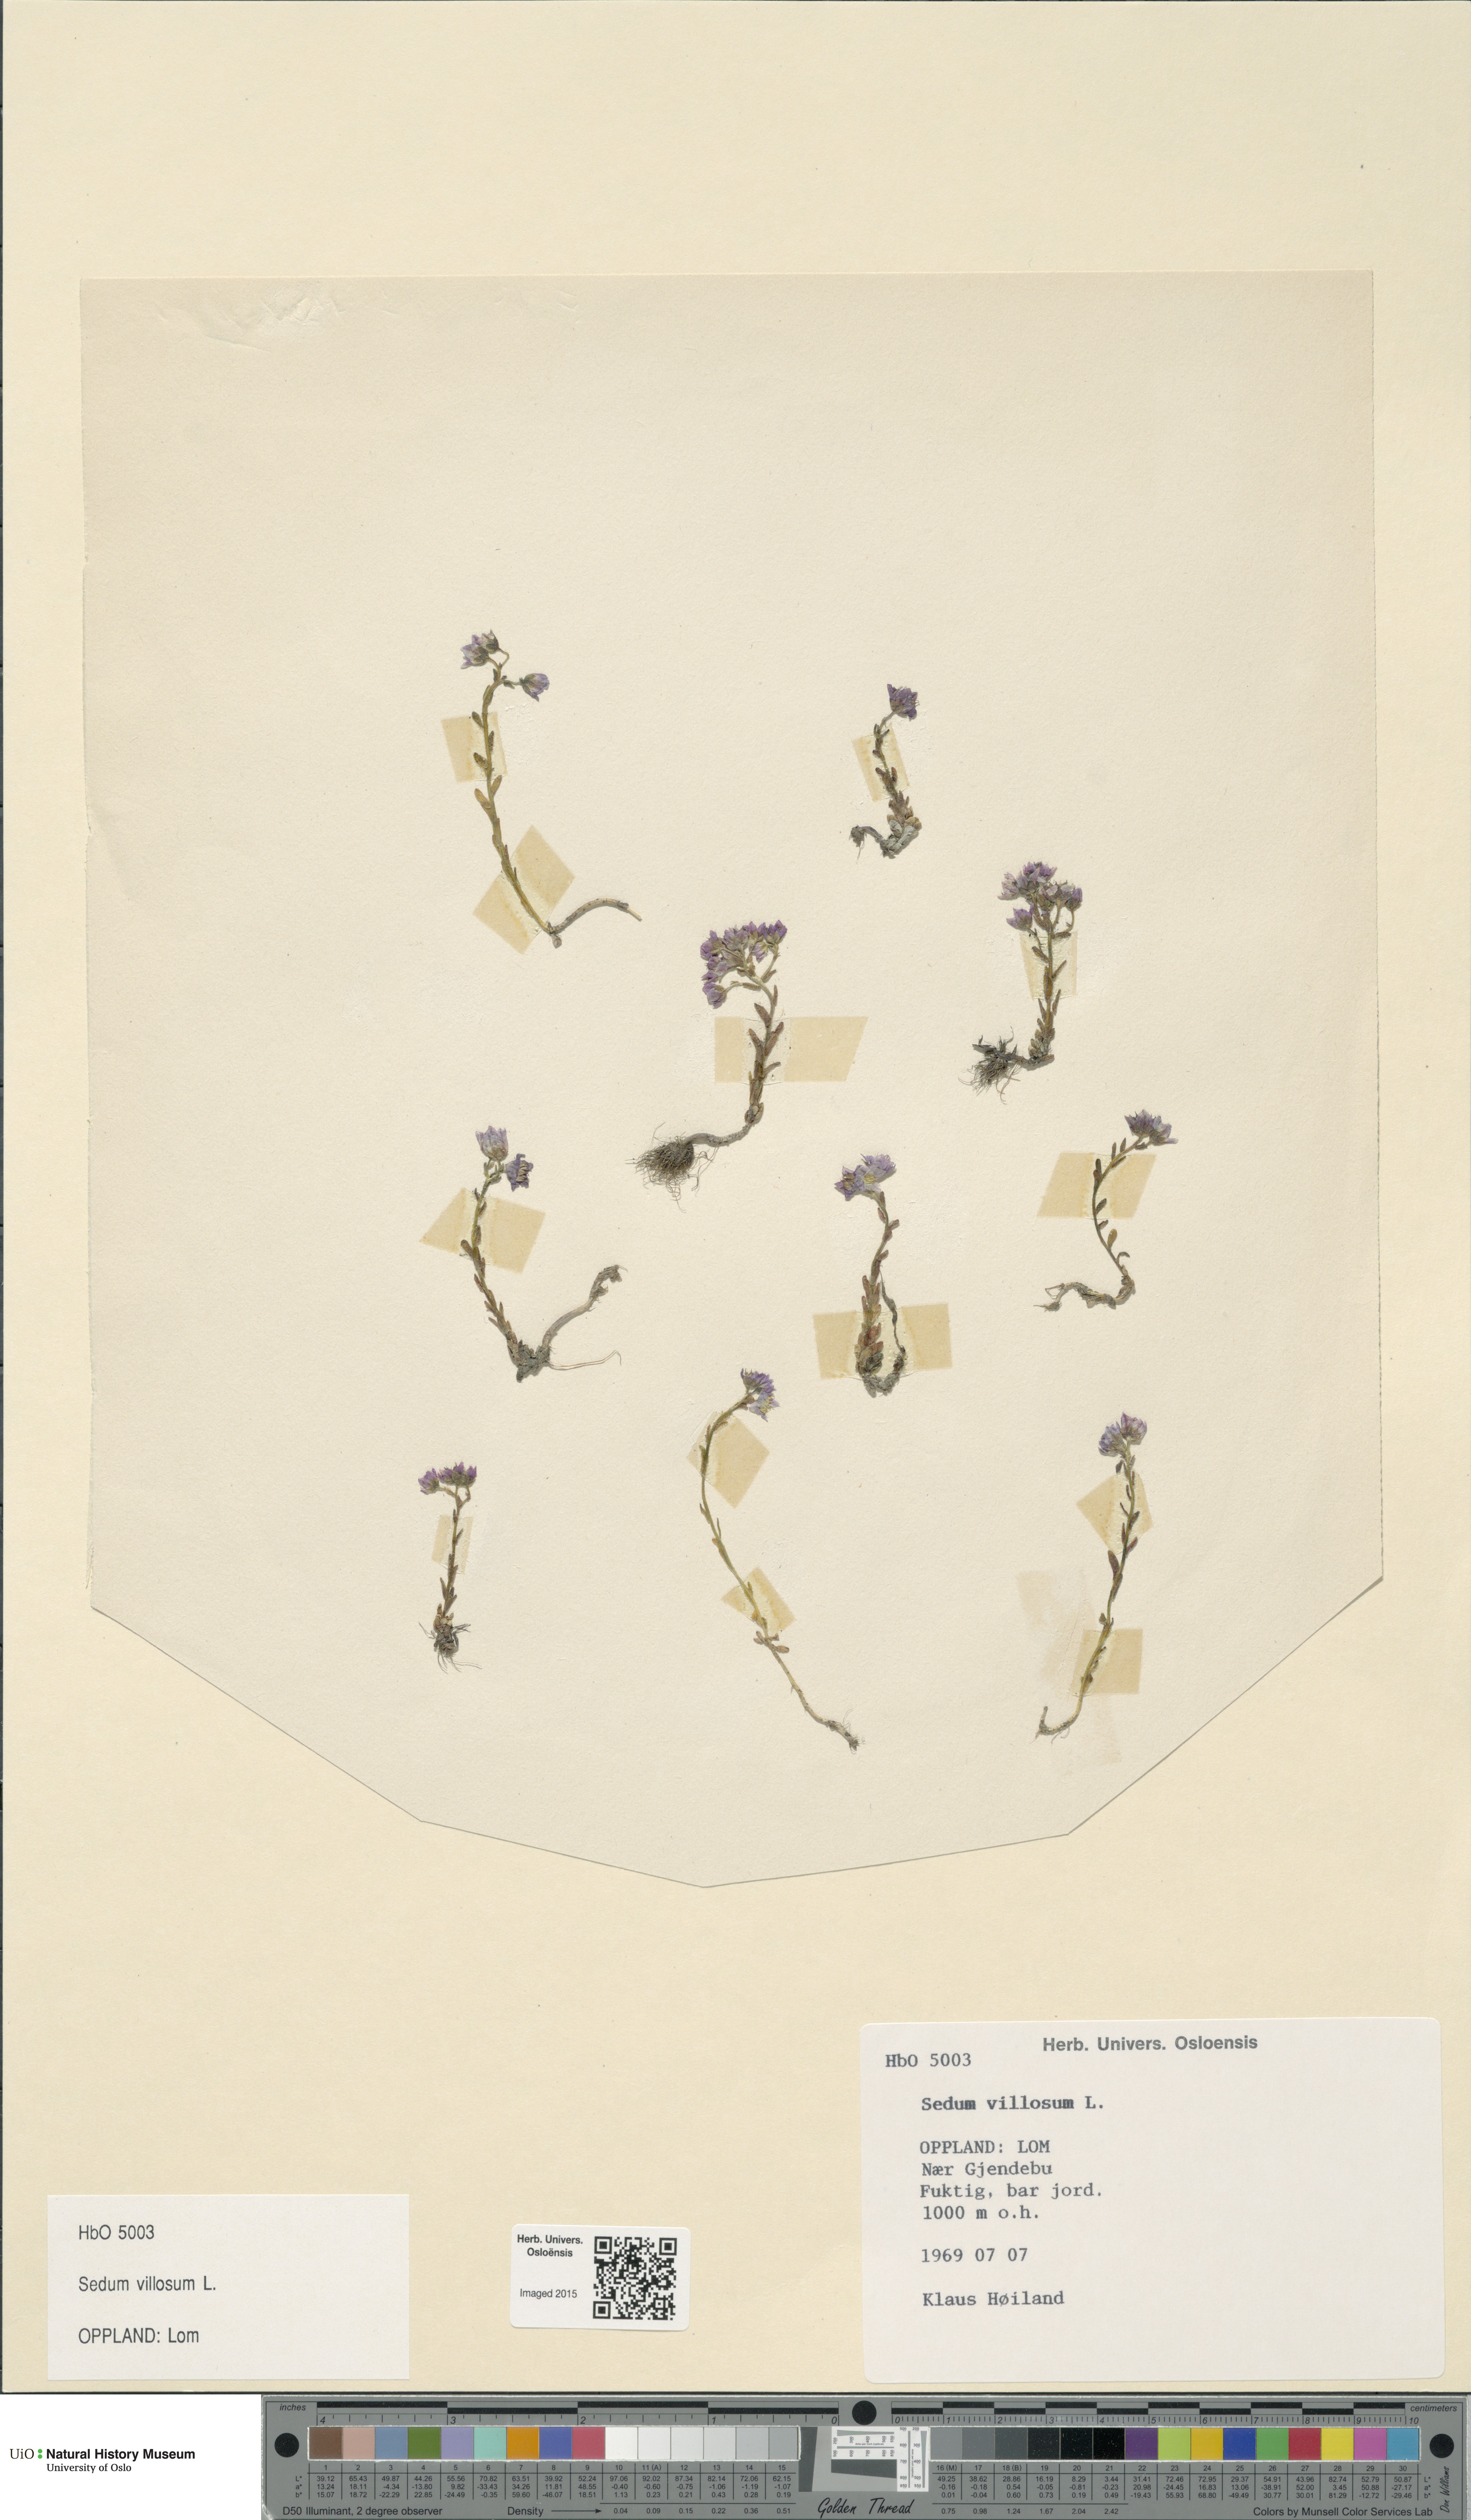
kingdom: Plantae
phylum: Tracheophyta
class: Magnoliopsida
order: Saxifragales
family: Crassulaceae
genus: Sedum
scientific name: Sedum villosum
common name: Hairy stonecrop
